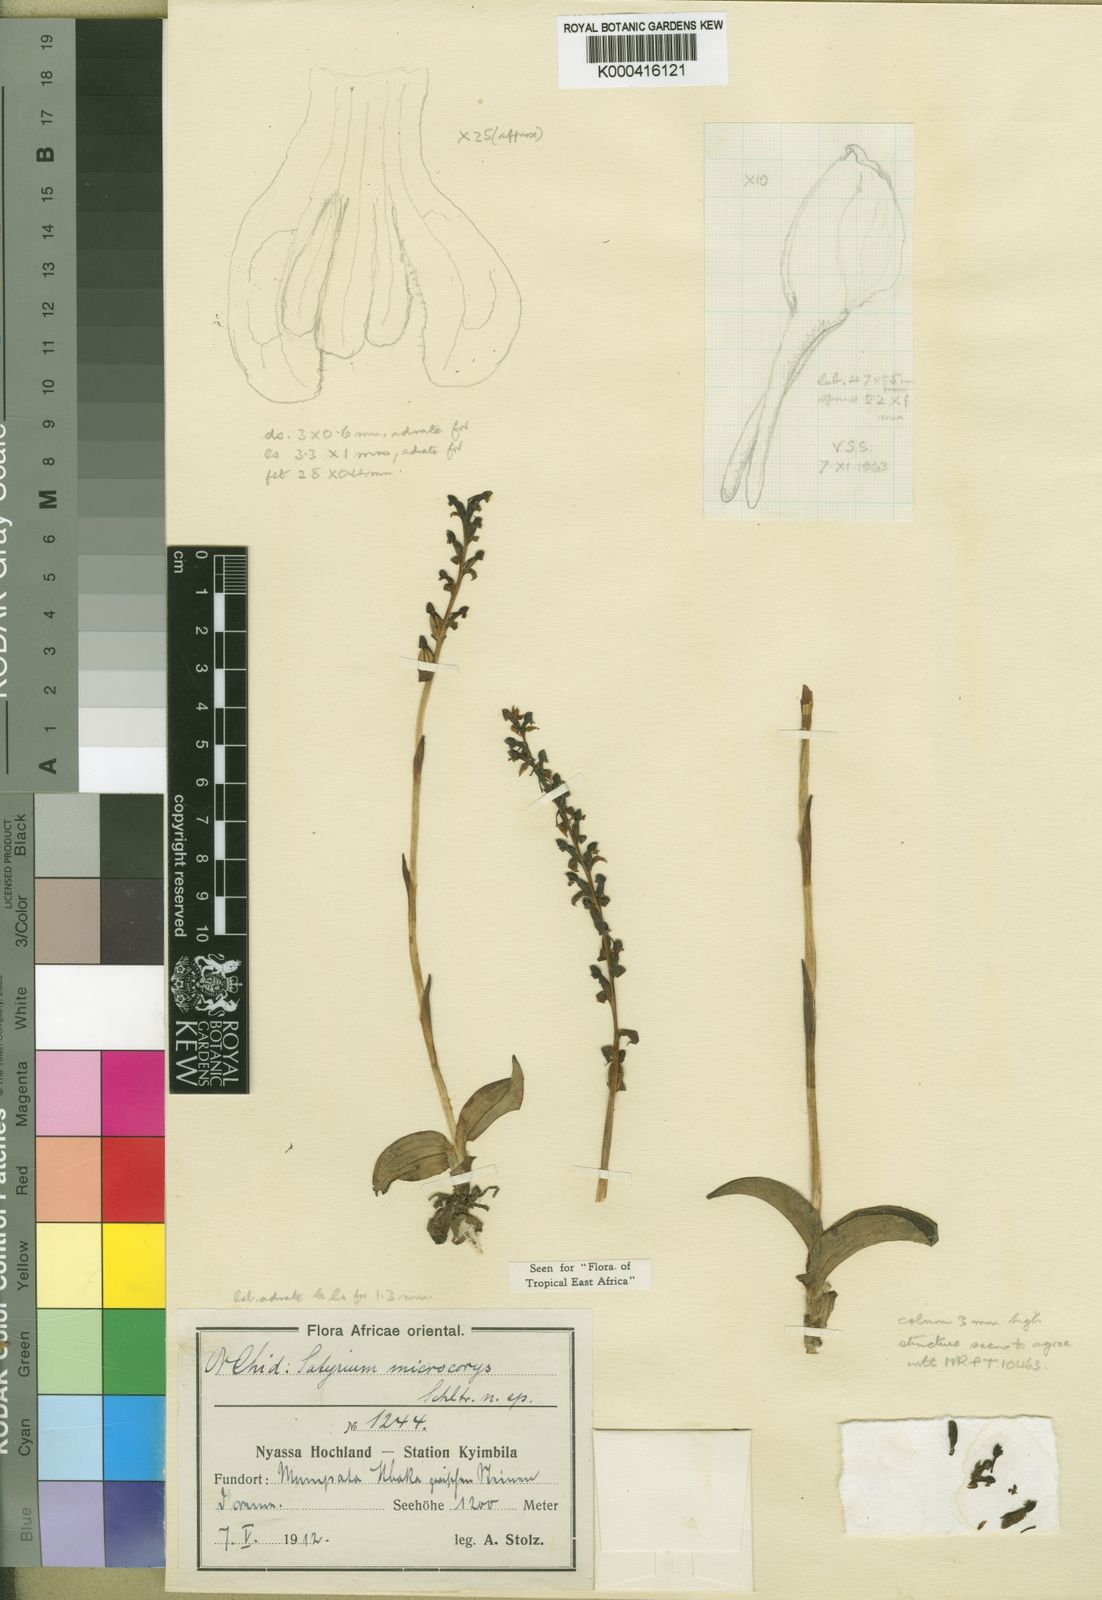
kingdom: Plantae
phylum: Tracheophyta
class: Liliopsida
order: Asparagales
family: Orchidaceae
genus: Satyrium
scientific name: Satyrium microcorys
